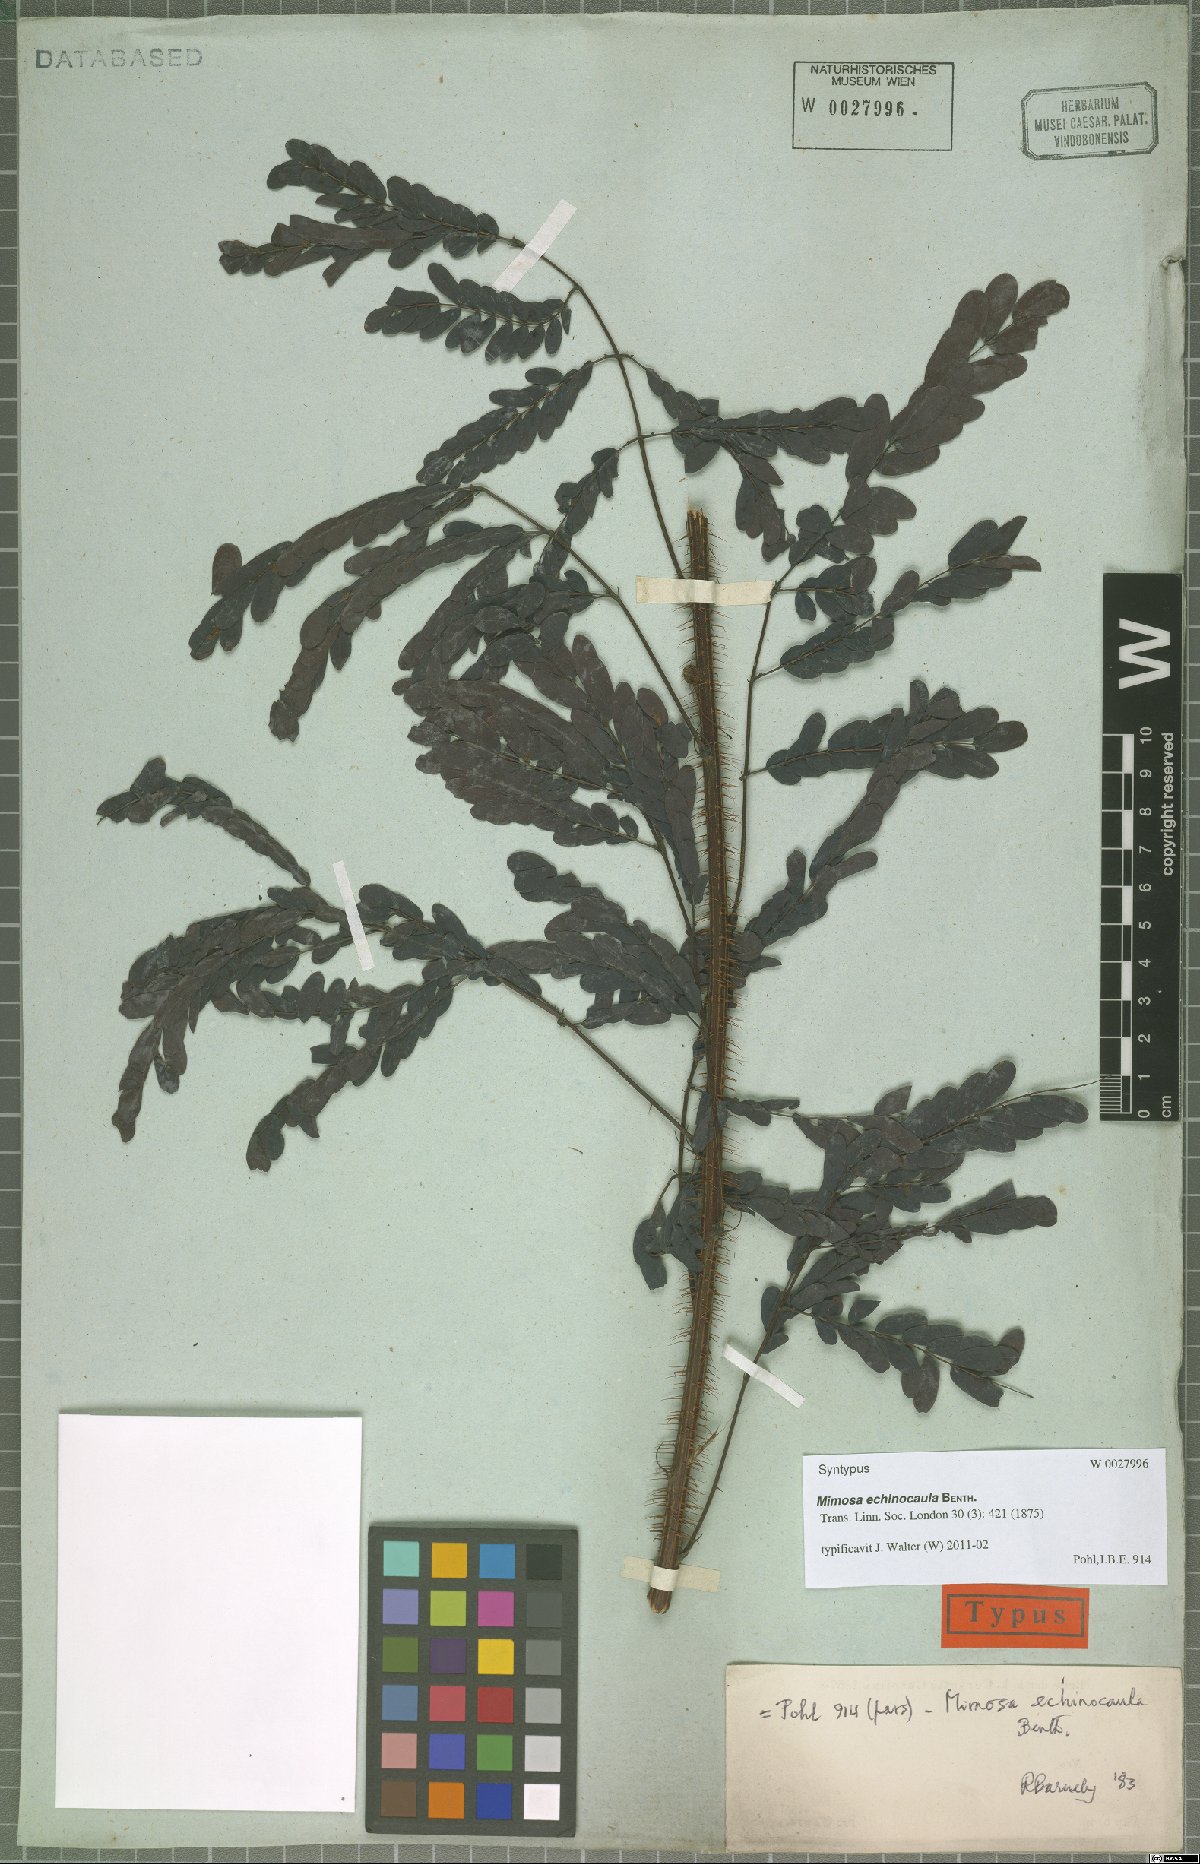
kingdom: Plantae
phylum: Tracheophyta
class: Magnoliopsida
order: Fabales
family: Fabaceae
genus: Mimosa
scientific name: Mimosa echinocaula
